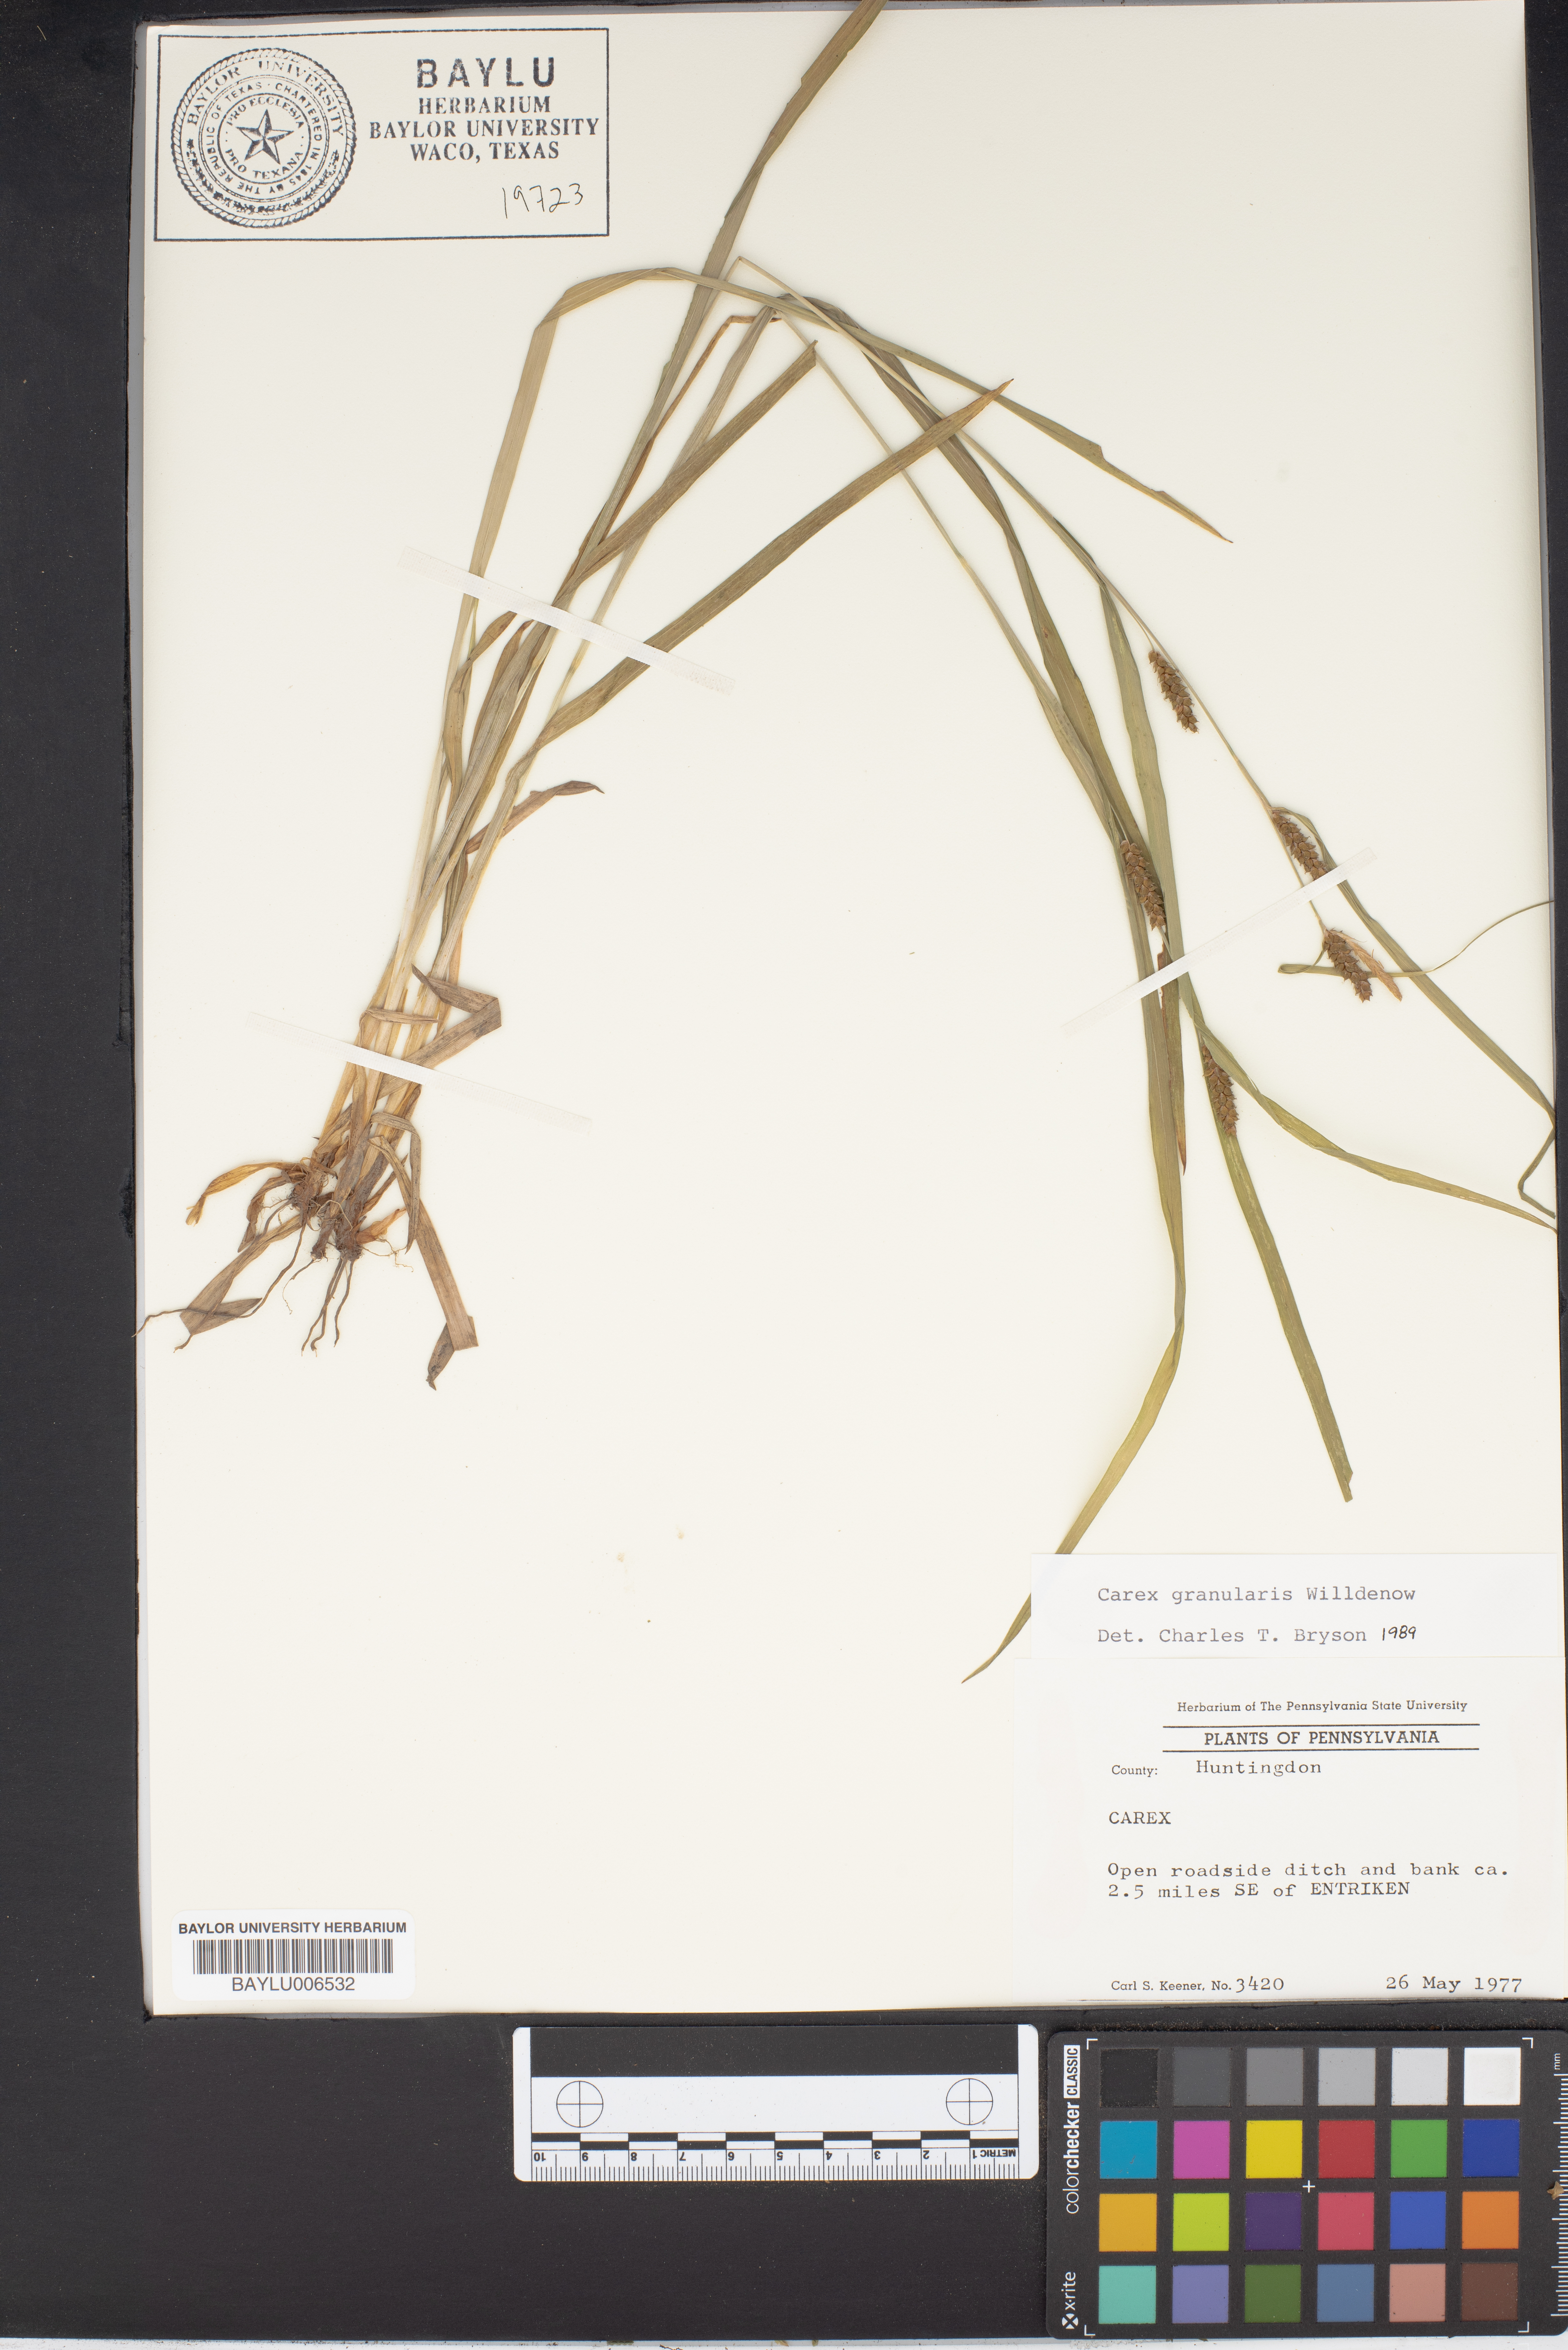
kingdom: Plantae
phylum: Tracheophyta
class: Liliopsida
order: Poales
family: Cyperaceae
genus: Carex
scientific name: Carex granularis
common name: Granular sedge
